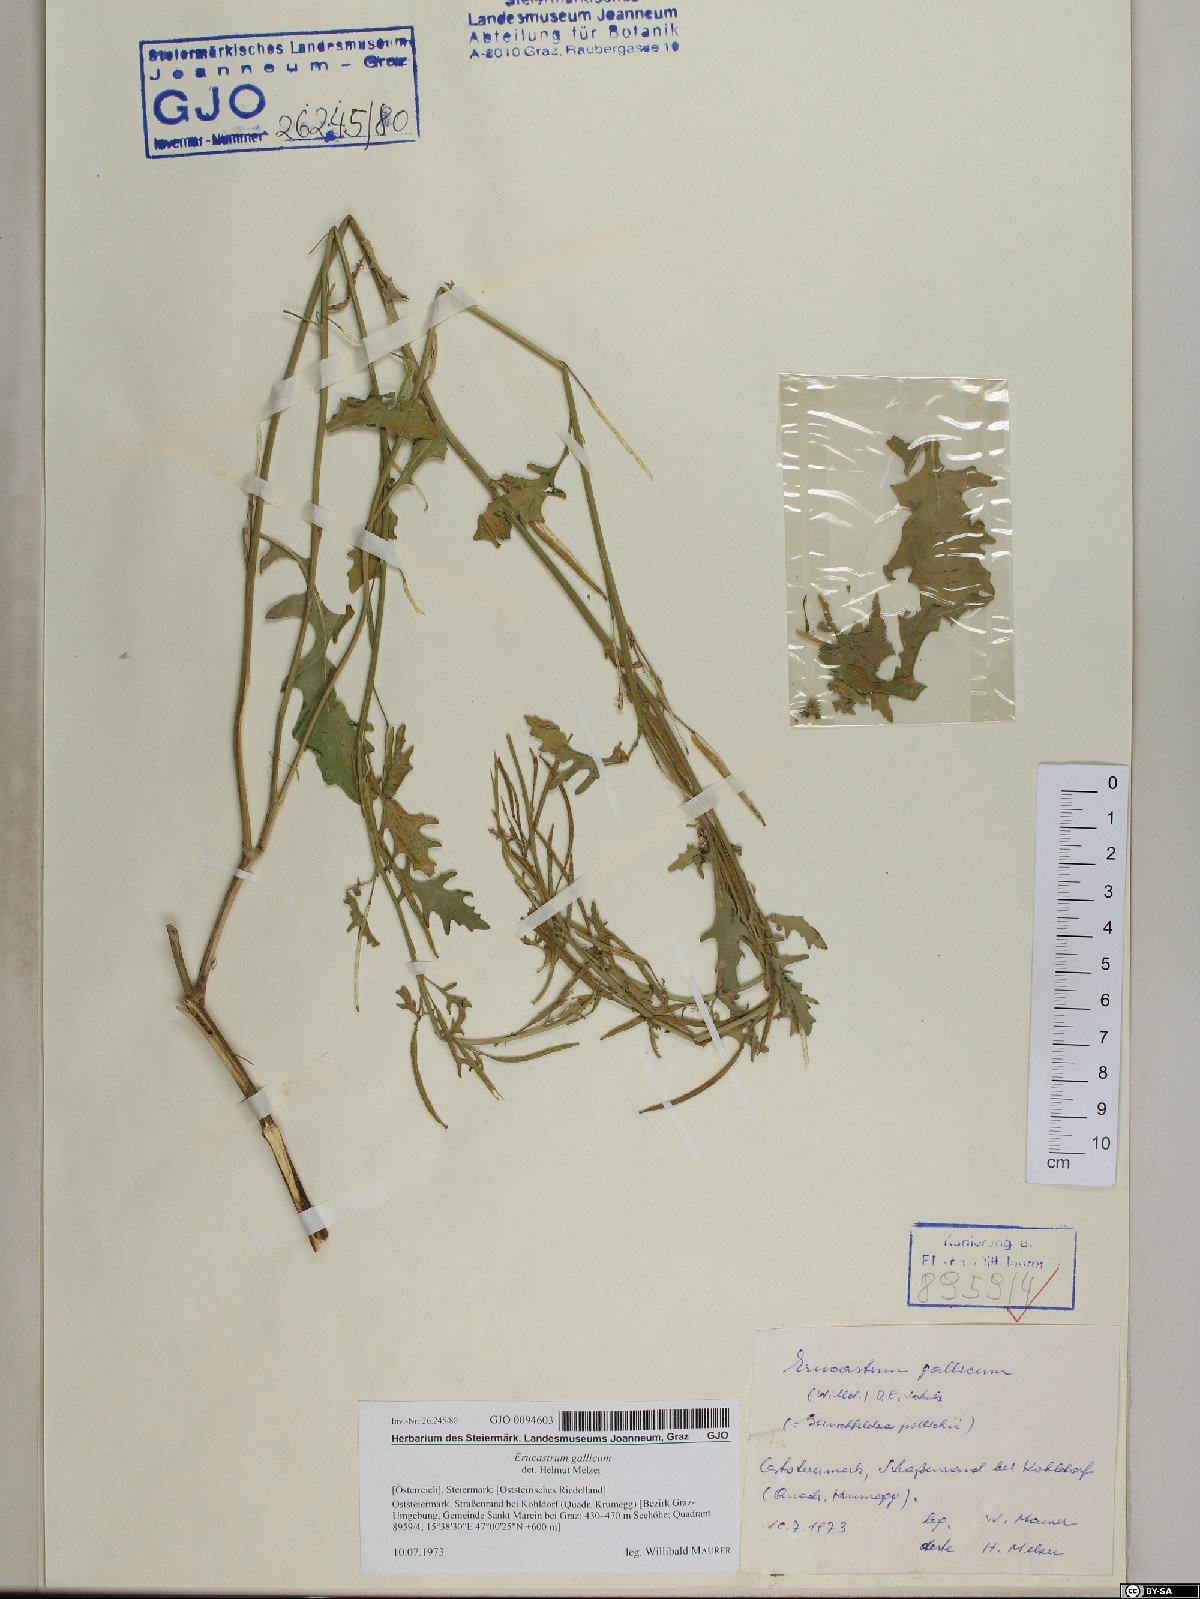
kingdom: Plantae
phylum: Tracheophyta
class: Magnoliopsida
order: Brassicales
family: Brassicaceae
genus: Erucastrum
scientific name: Erucastrum gallicum
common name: Hairy rocket
